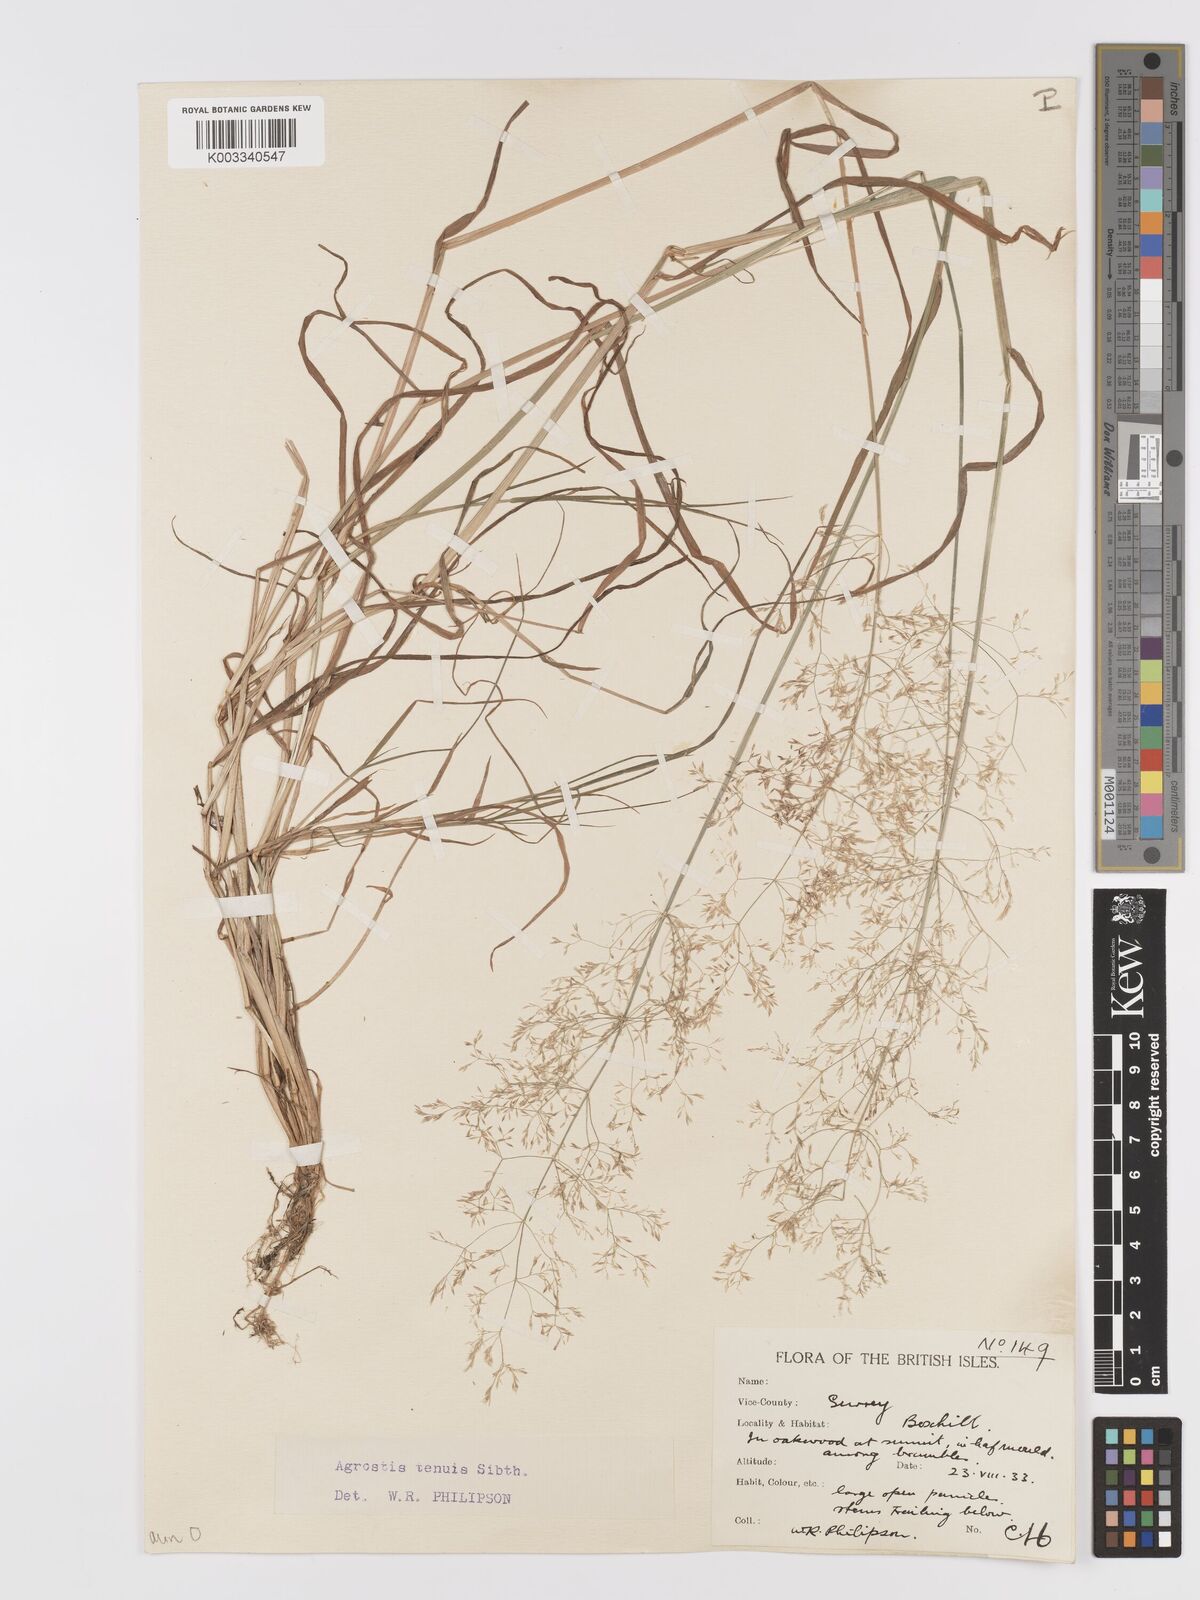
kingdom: Plantae
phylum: Tracheophyta
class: Liliopsida
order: Poales
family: Poaceae
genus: Agrostis
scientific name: Agrostis capillaris
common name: Colonial bentgrass
